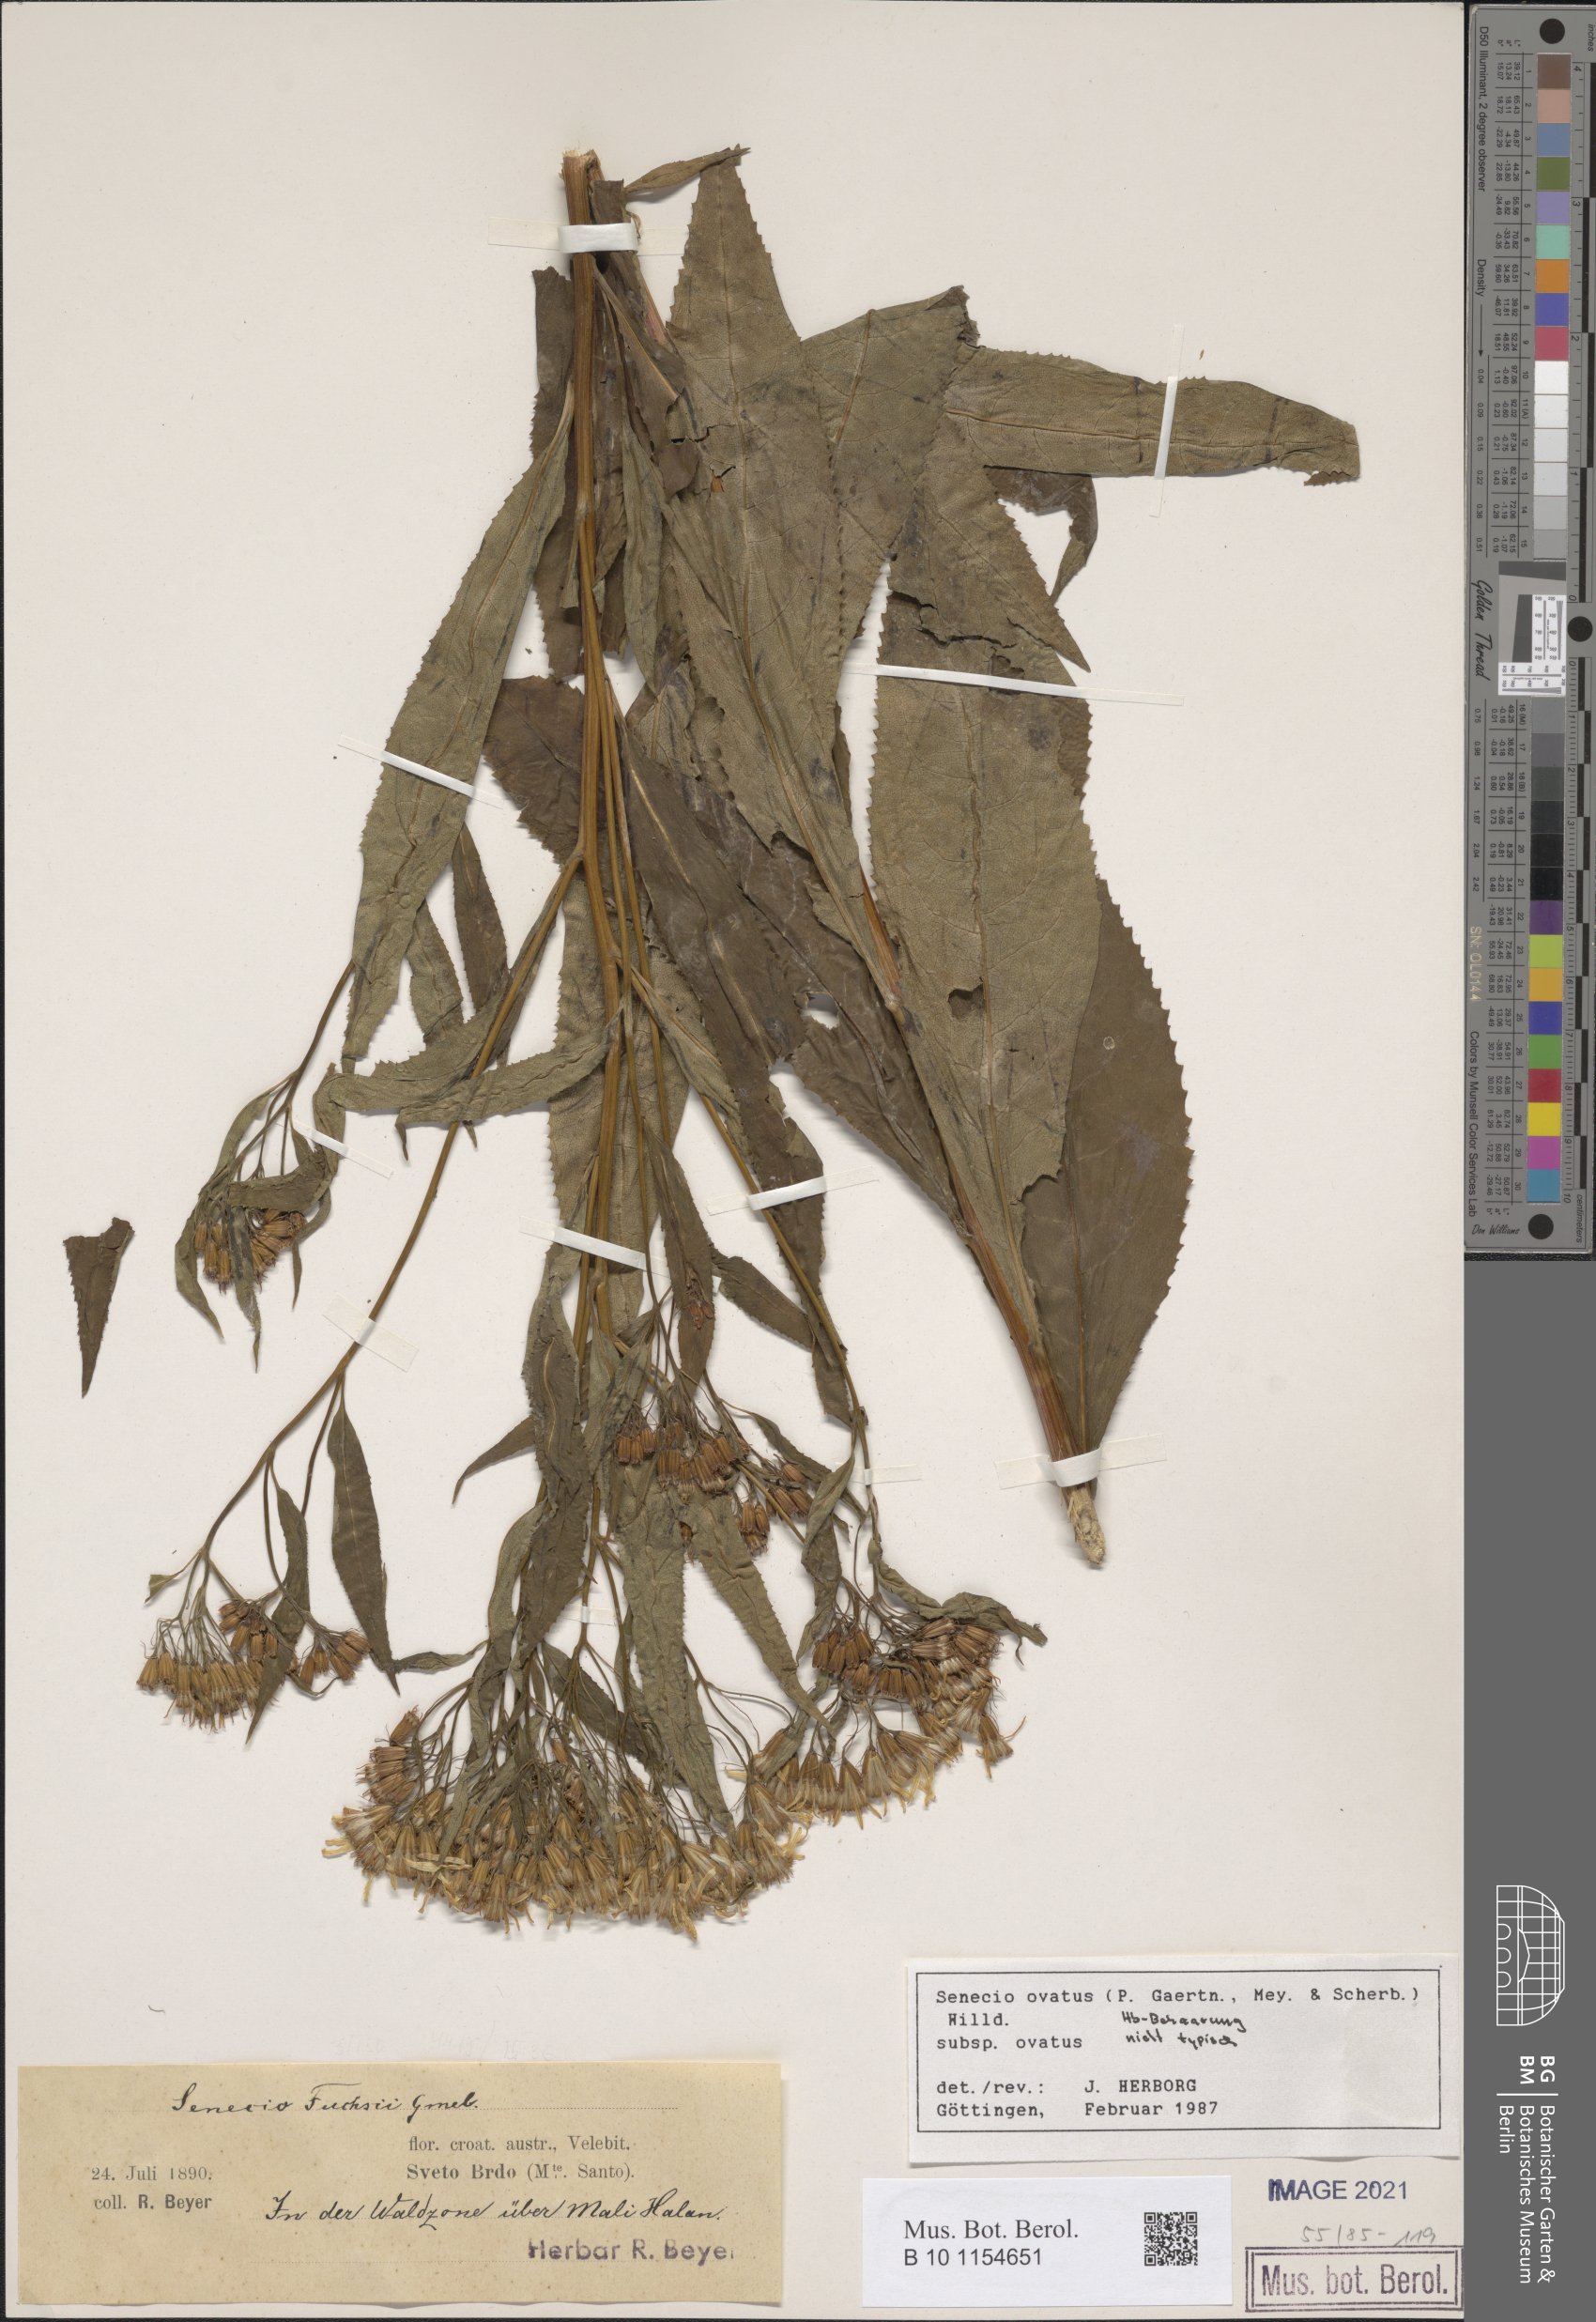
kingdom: Plantae
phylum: Tracheophyta
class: Magnoliopsida
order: Asterales
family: Asteraceae
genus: Senecio
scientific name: Senecio ovatus
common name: Wood ragwort
